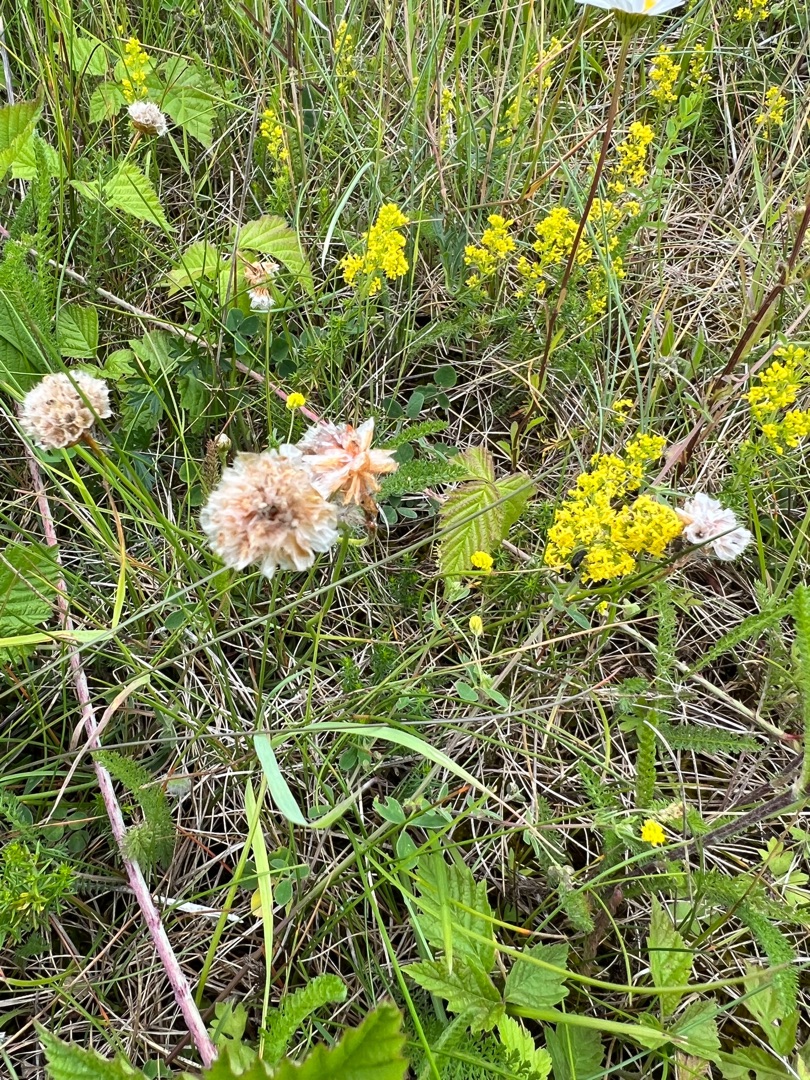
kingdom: Plantae
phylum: Tracheophyta
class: Magnoliopsida
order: Caryophyllales
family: Plumbaginaceae
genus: Armeria
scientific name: Armeria maritima
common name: Engelskgræs
